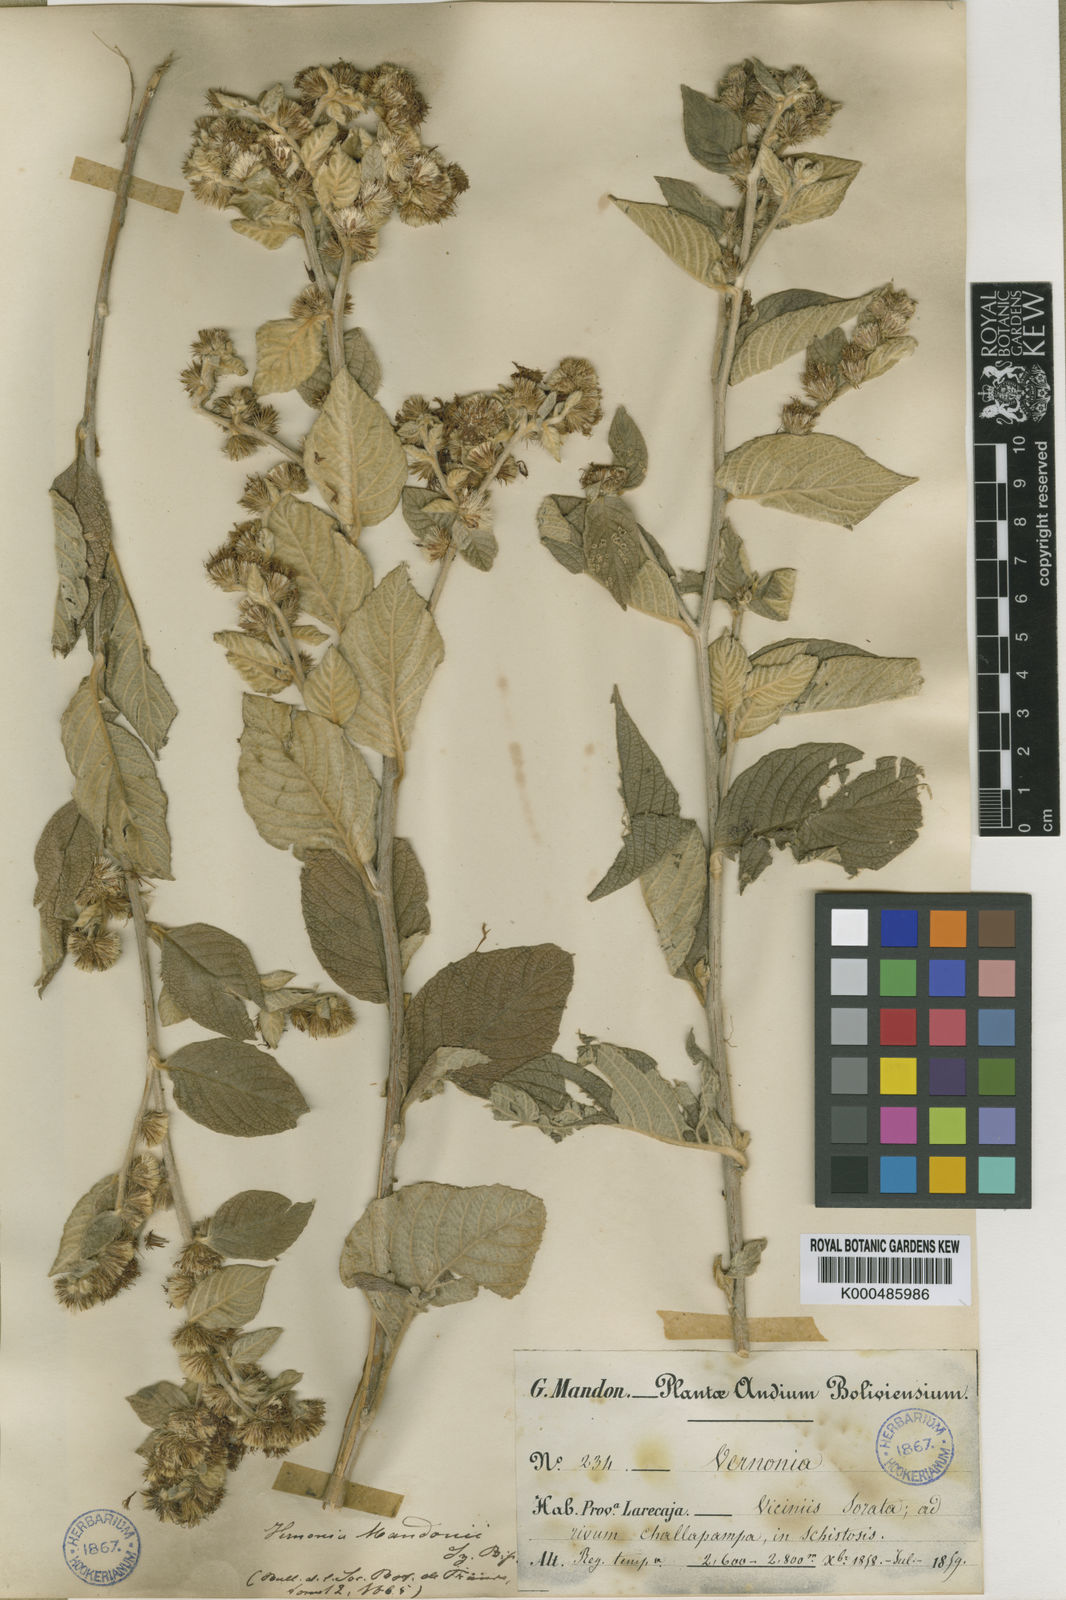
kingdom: Plantae
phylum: Tracheophyta
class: Magnoliopsida
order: Asterales
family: Asteraceae
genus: Lepidaploa
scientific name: Lepidaploa mandonii
